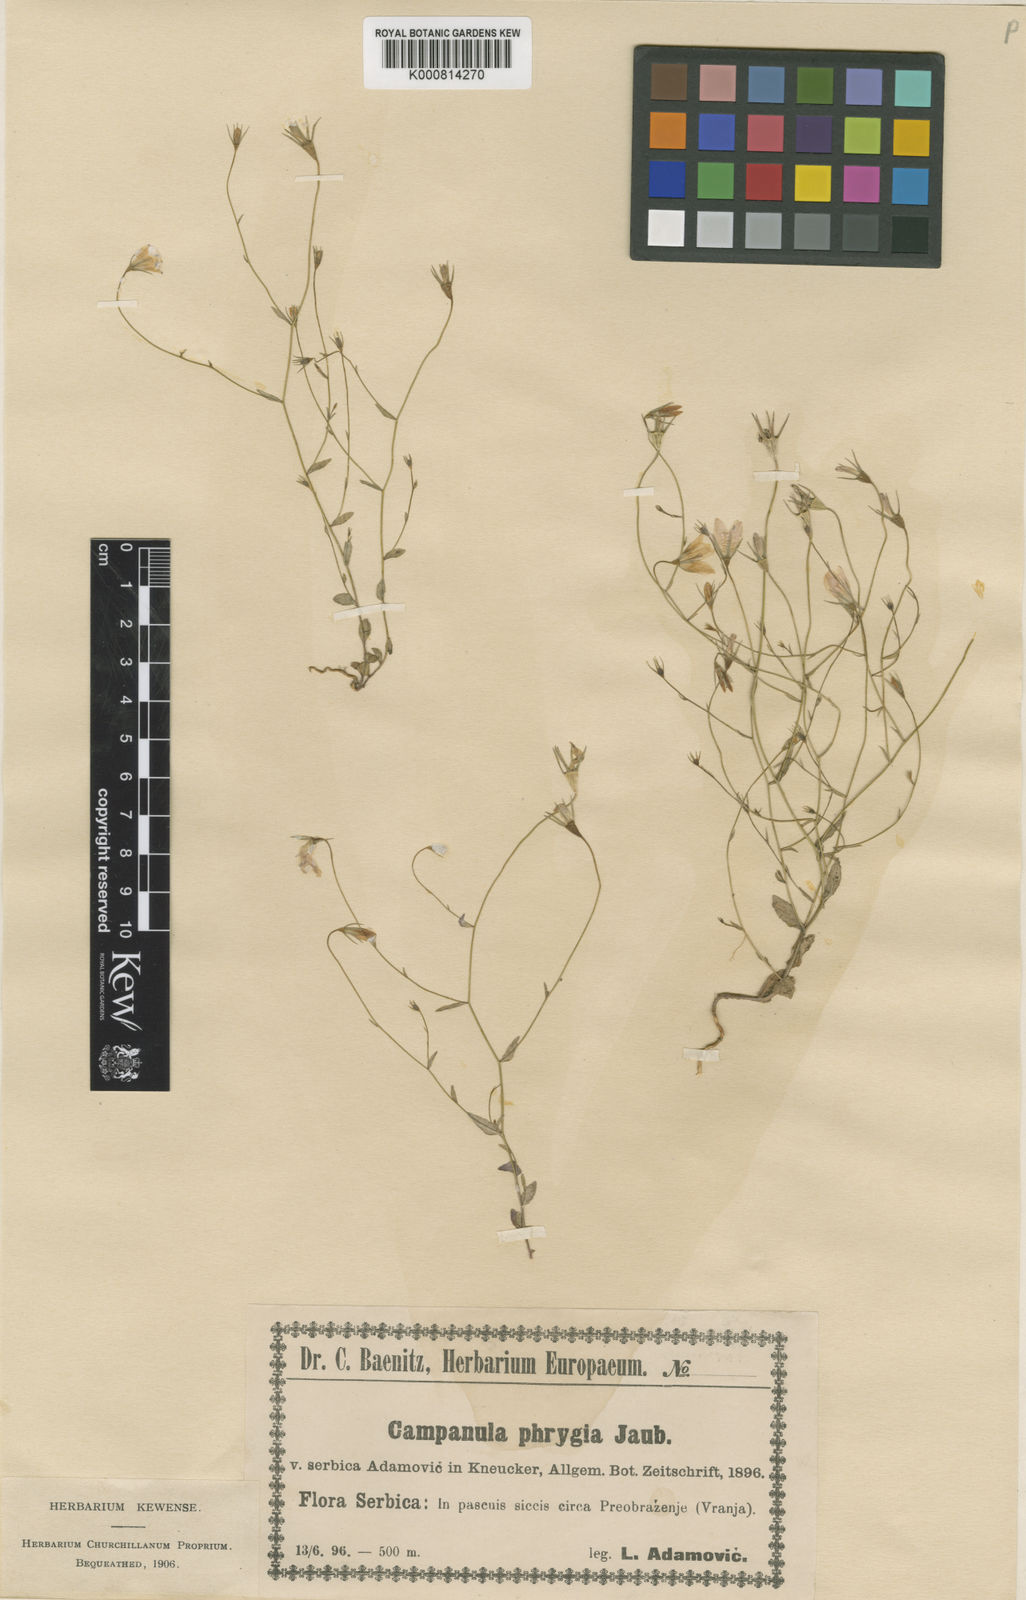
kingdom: Plantae
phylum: Tracheophyta
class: Magnoliopsida
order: Asterales
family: Campanulaceae
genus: Campanula
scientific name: Campanula phrygia
